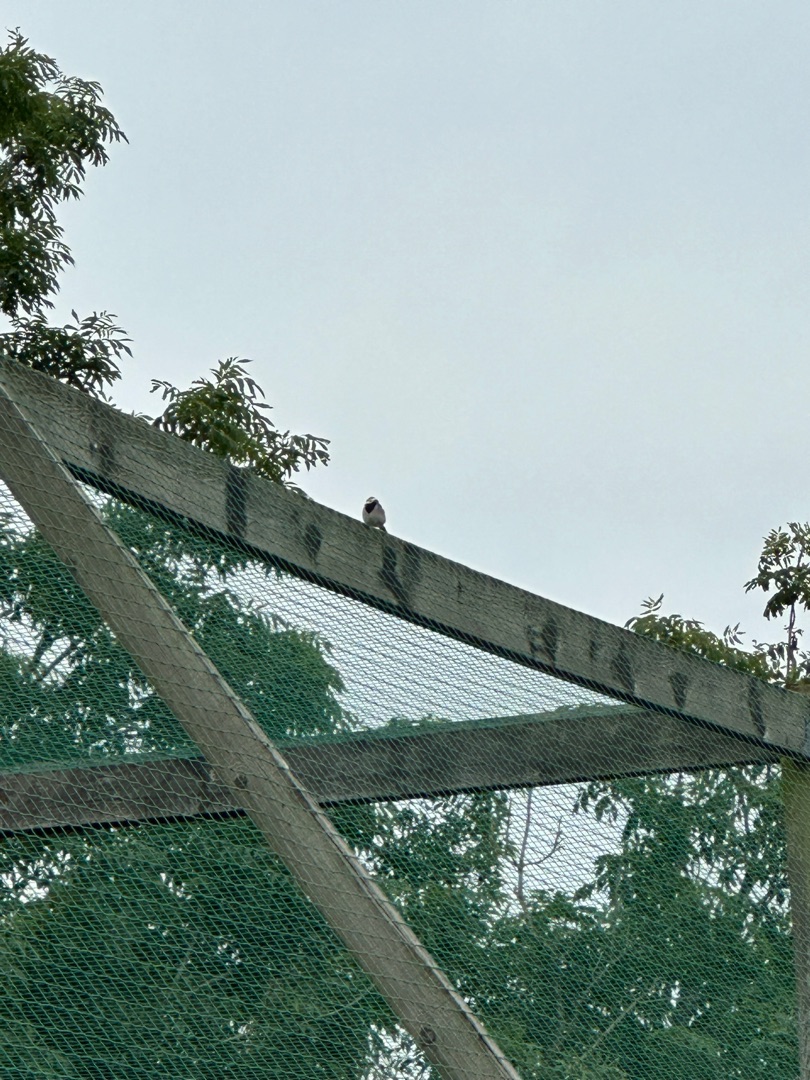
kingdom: Animalia
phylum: Chordata
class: Aves
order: Passeriformes
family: Motacillidae
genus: Motacilla
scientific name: Motacilla alba
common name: Hvid vipstjert
